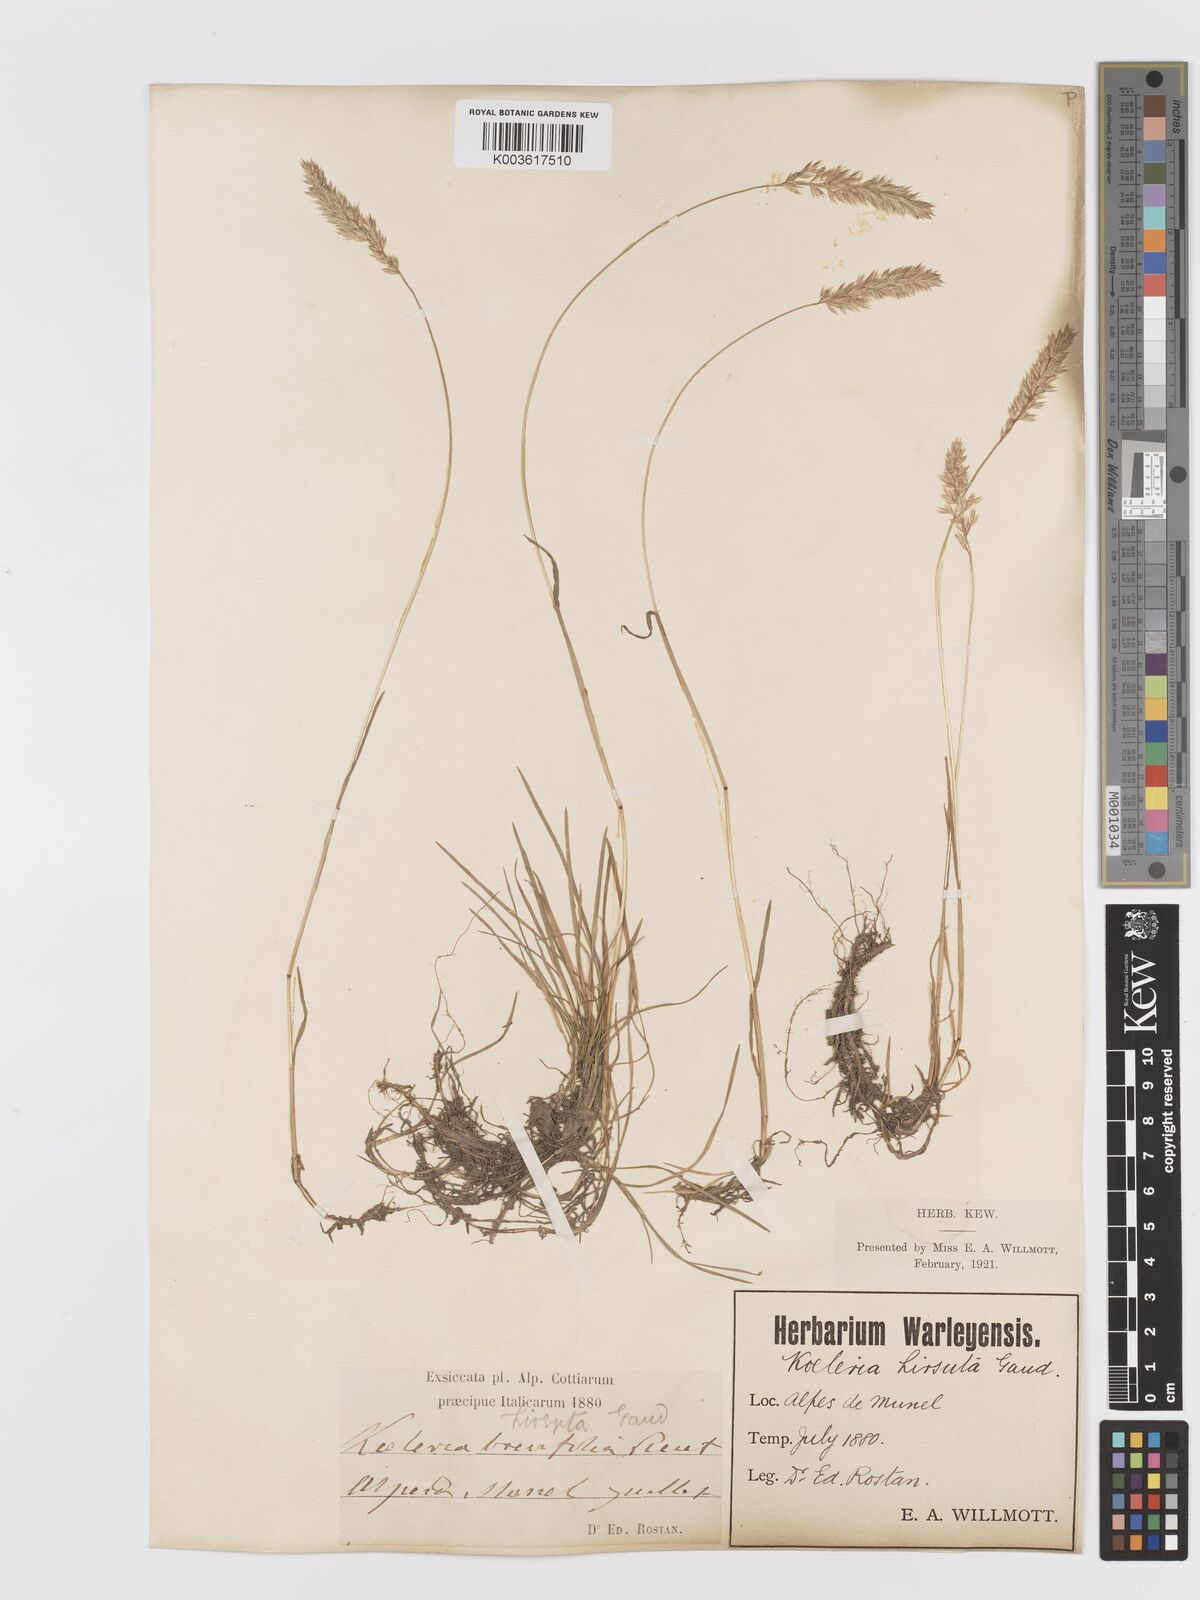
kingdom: Plantae
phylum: Tracheophyta
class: Liliopsida
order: Poales
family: Poaceae
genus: Koeleria
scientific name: Koeleria
